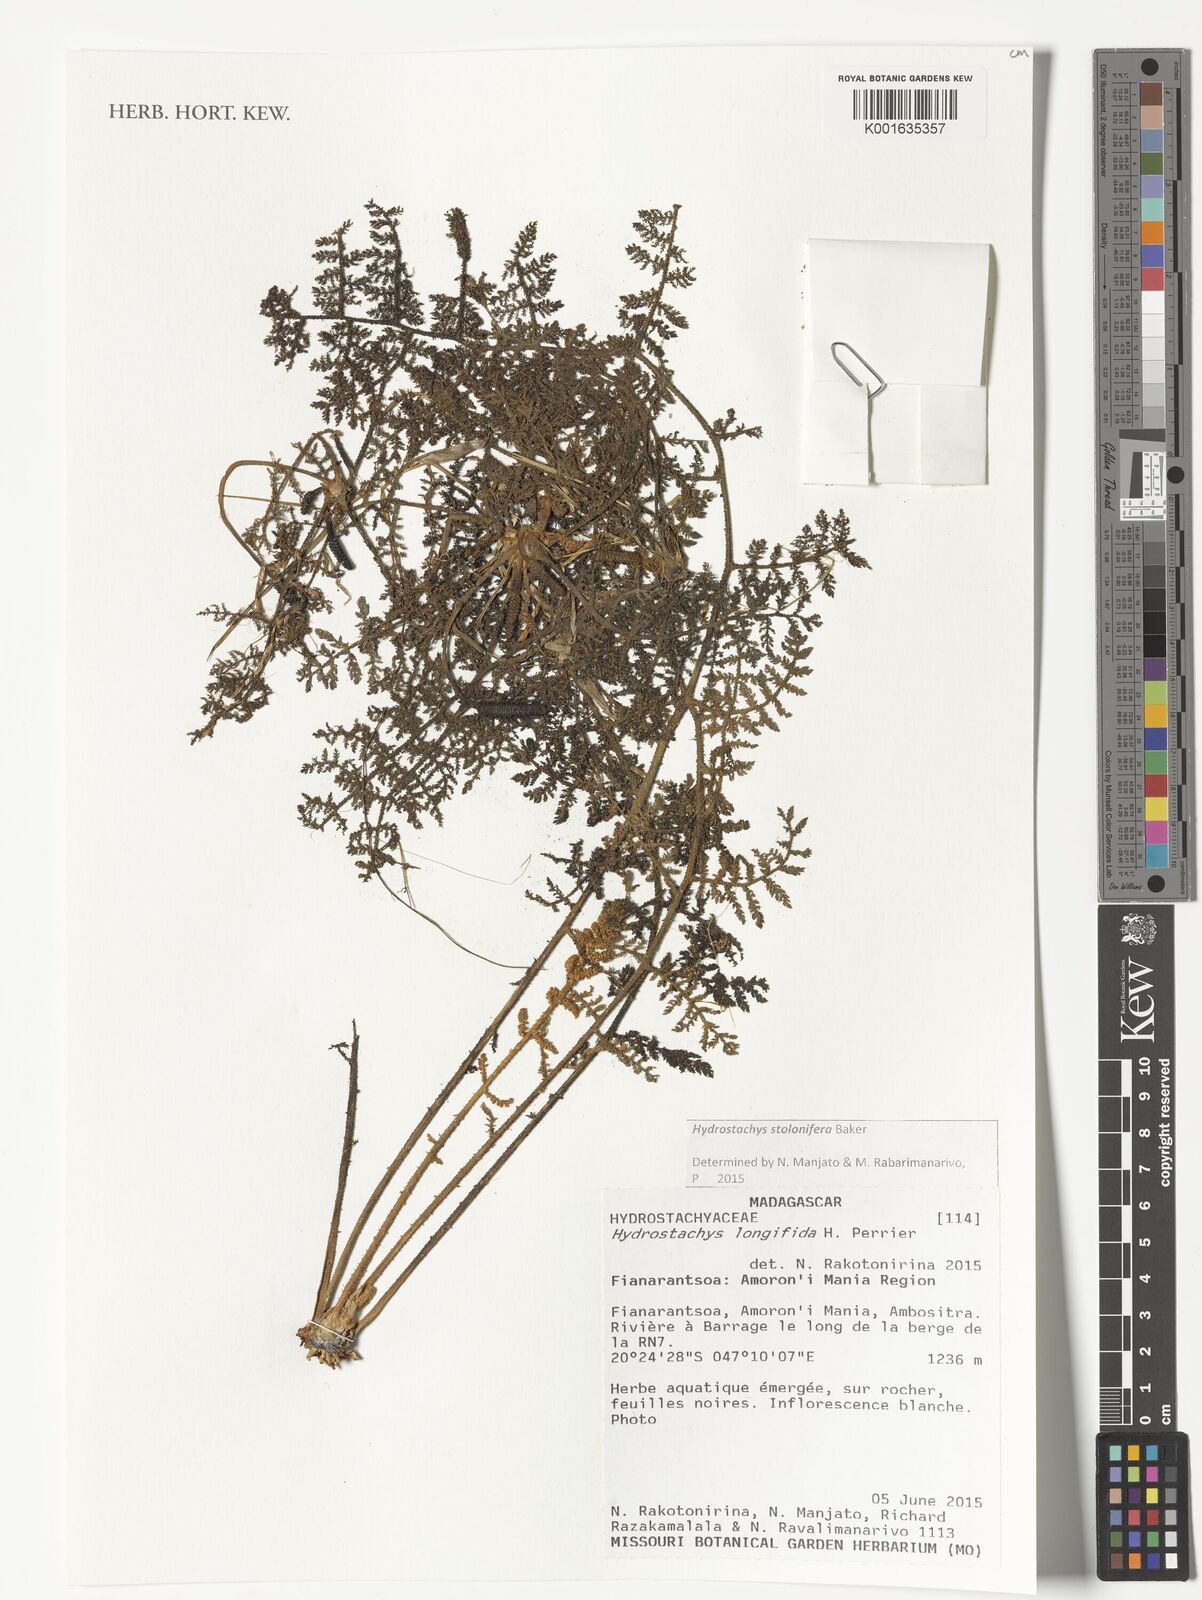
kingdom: Plantae
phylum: Tracheophyta
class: Magnoliopsida
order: Cornales
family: Hydrostachyaceae
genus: Hydrostachys
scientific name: Hydrostachys longifida
